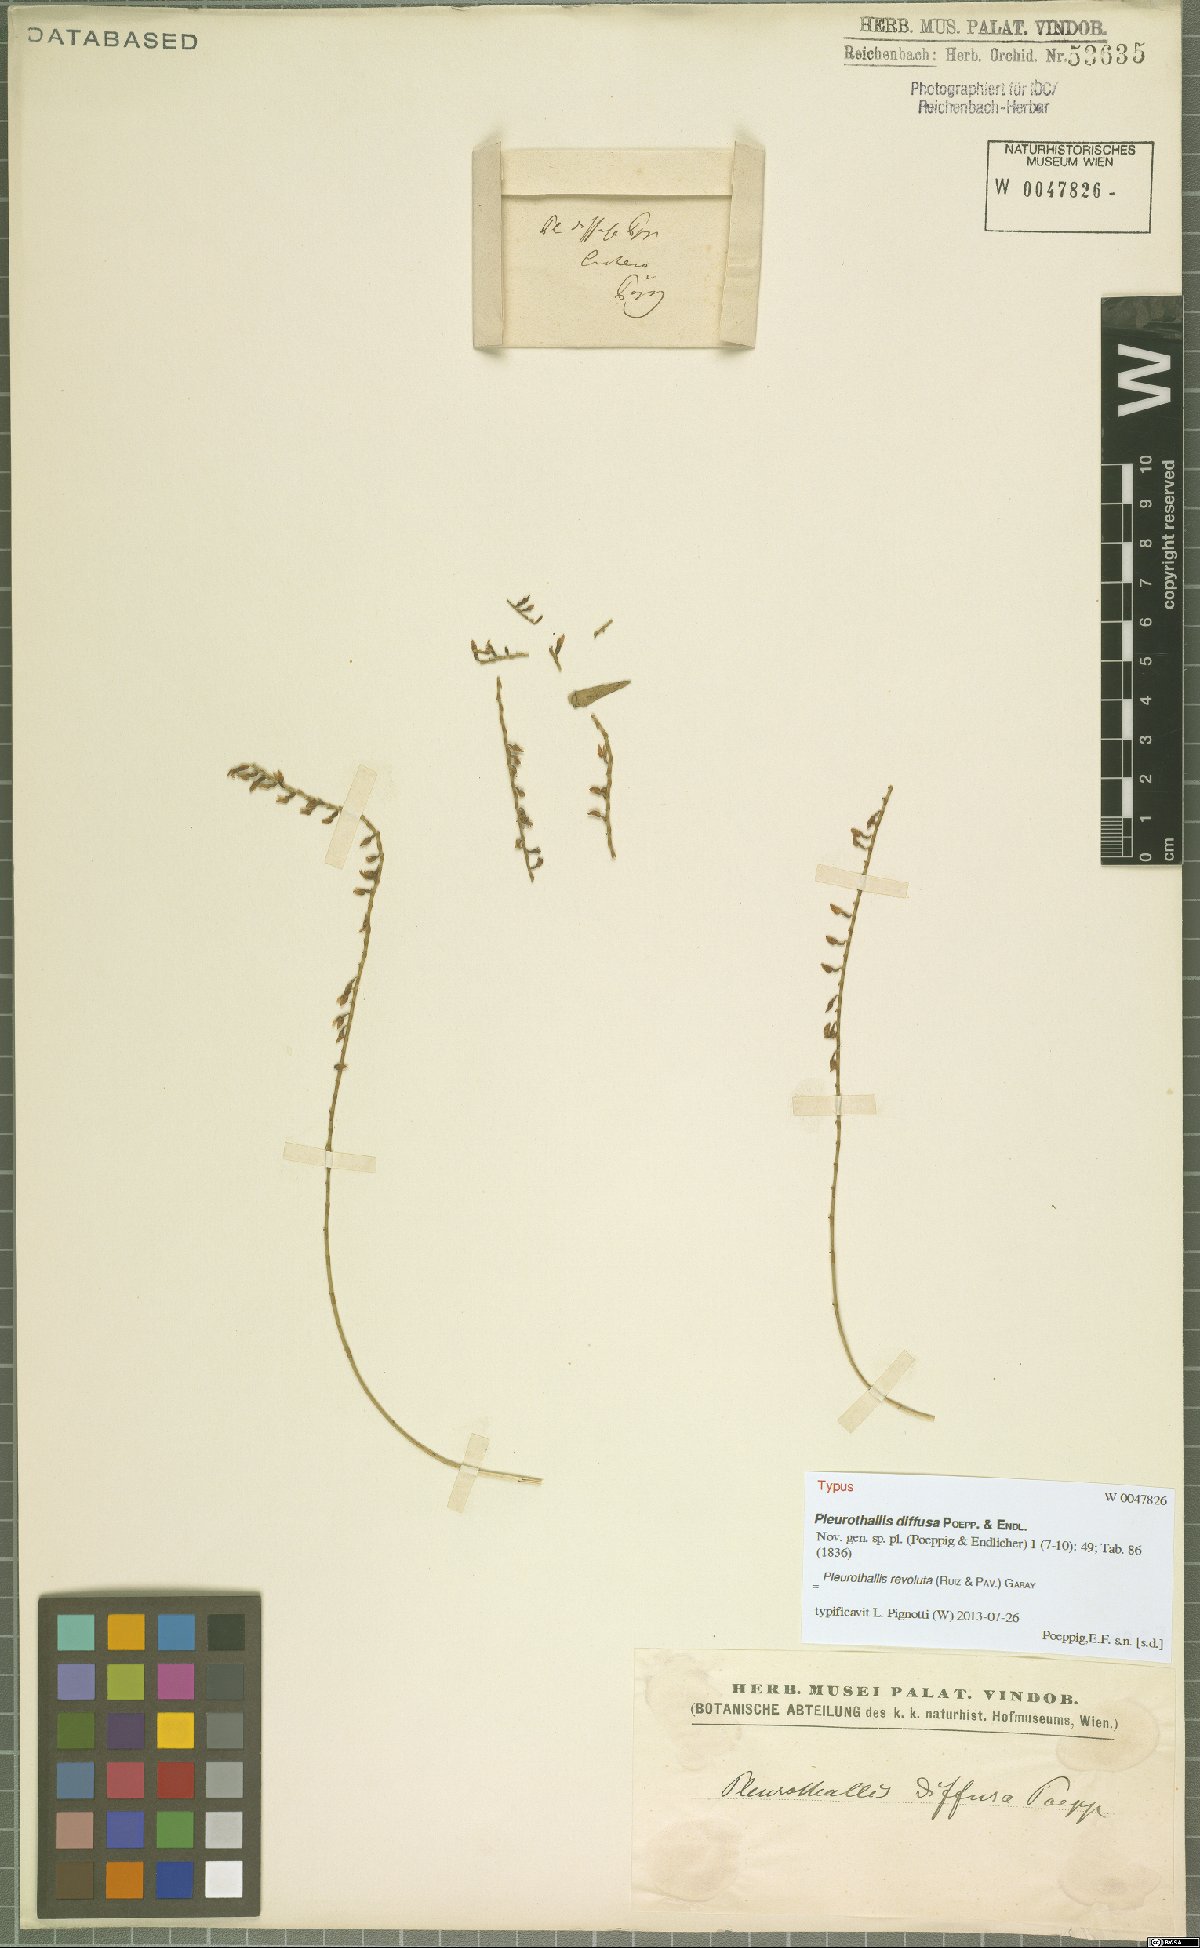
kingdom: Plantae
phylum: Tracheophyta
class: Liliopsida
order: Asparagales
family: Orchidaceae
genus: Pleurothallis
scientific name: Pleurothallis revoluta
